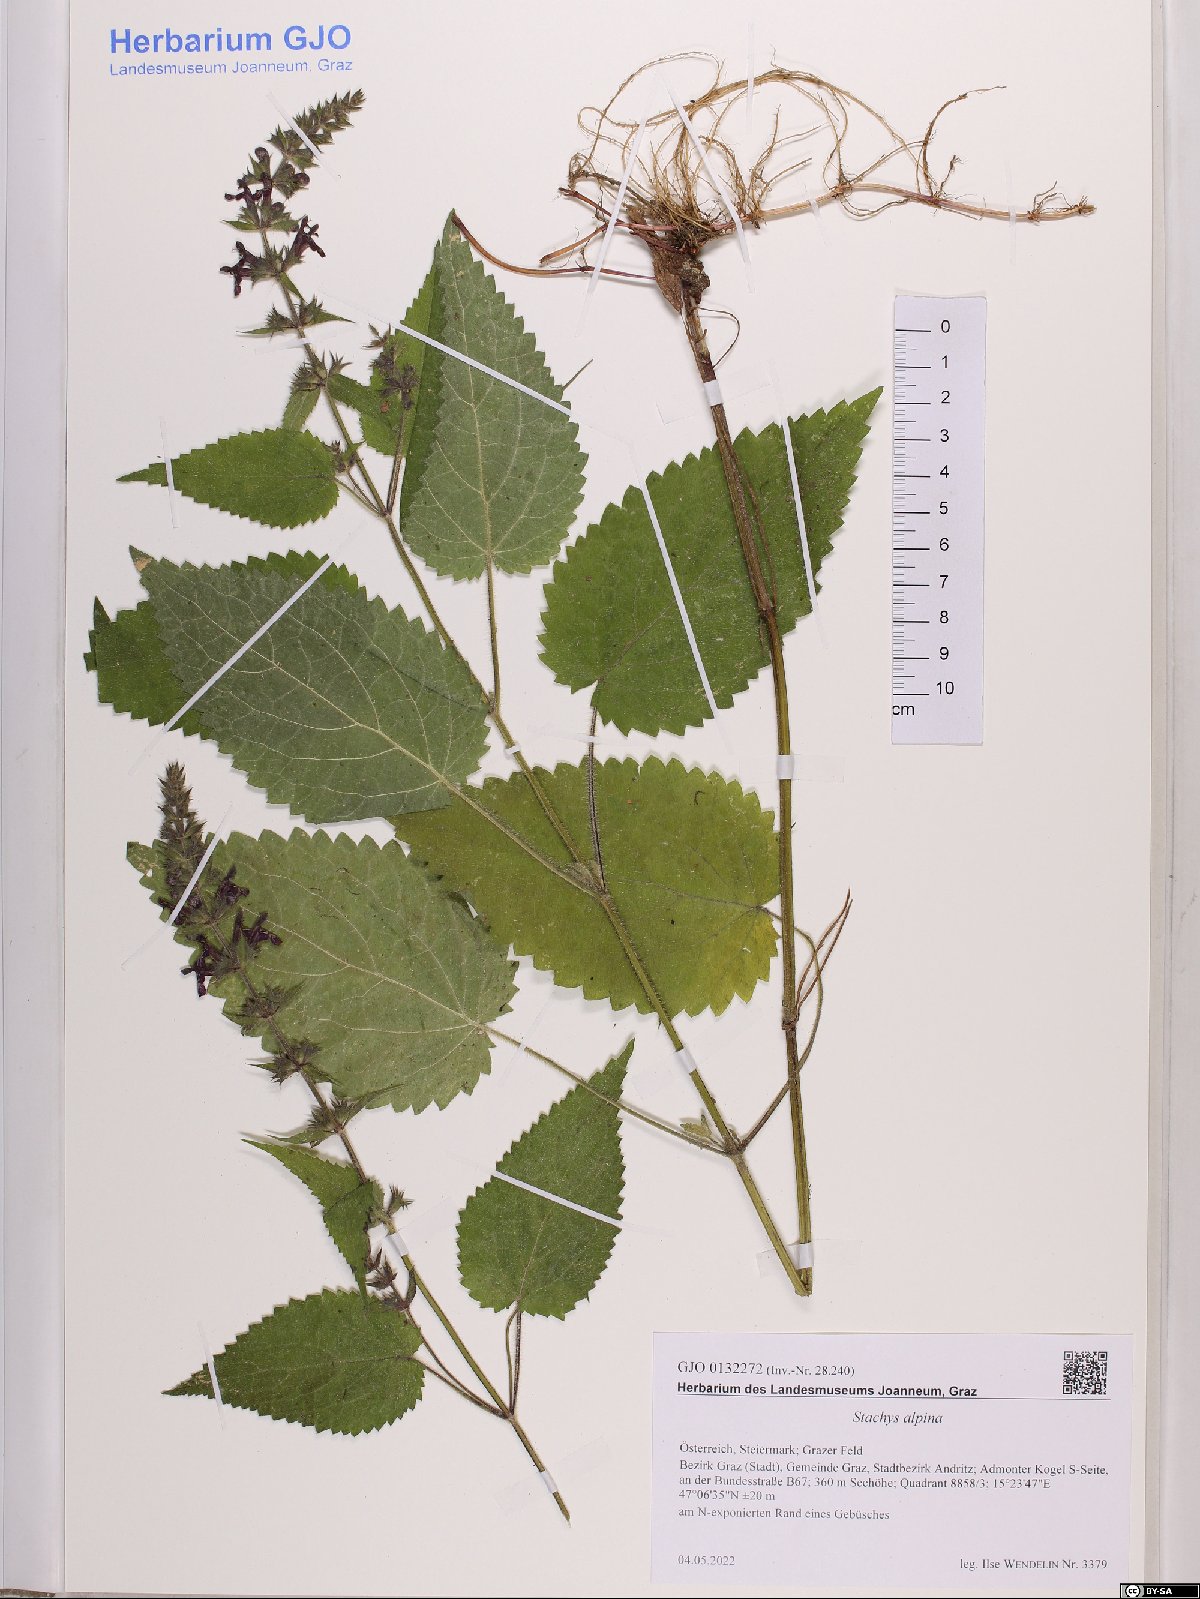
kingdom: Plantae
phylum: Tracheophyta
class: Magnoliopsida
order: Lamiales
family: Lamiaceae
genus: Stachys
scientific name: Stachys alpina
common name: Limestone woundwort
